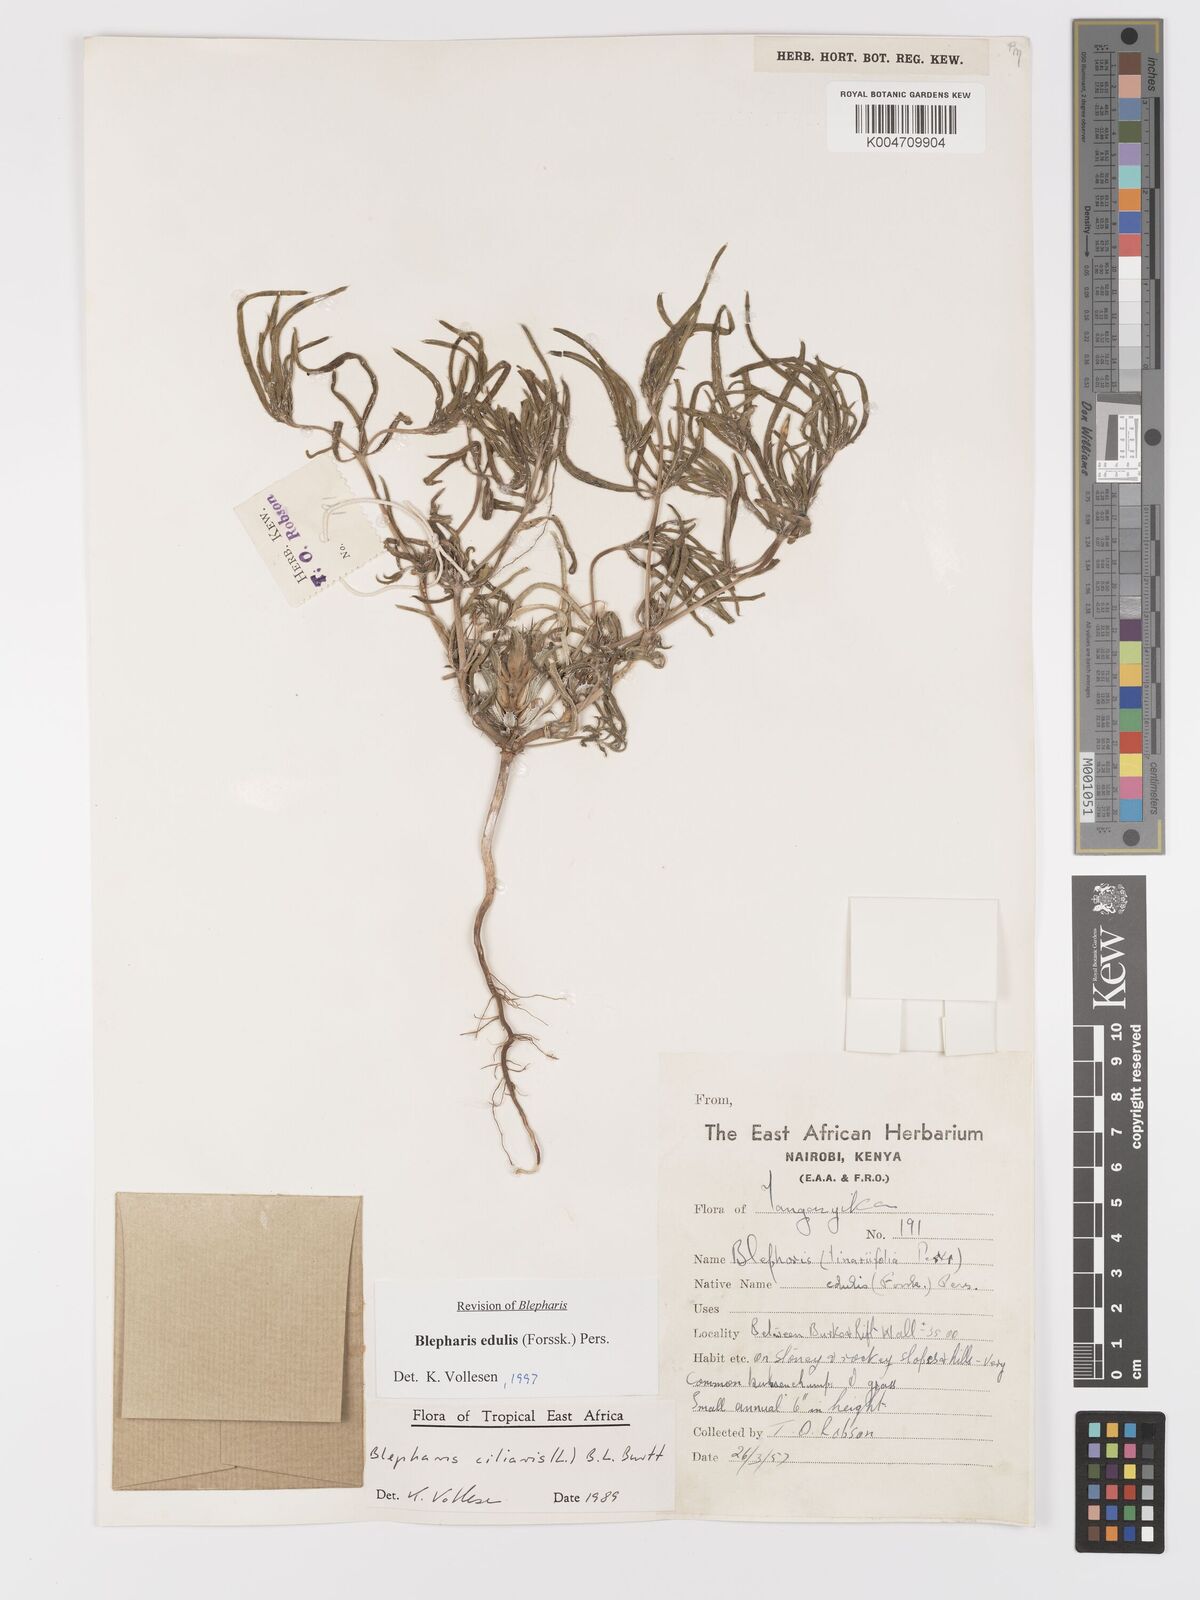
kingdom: Plantae
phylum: Tracheophyta
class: Magnoliopsida
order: Lamiales
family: Acanthaceae
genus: Blepharis
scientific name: Blepharis edulis
